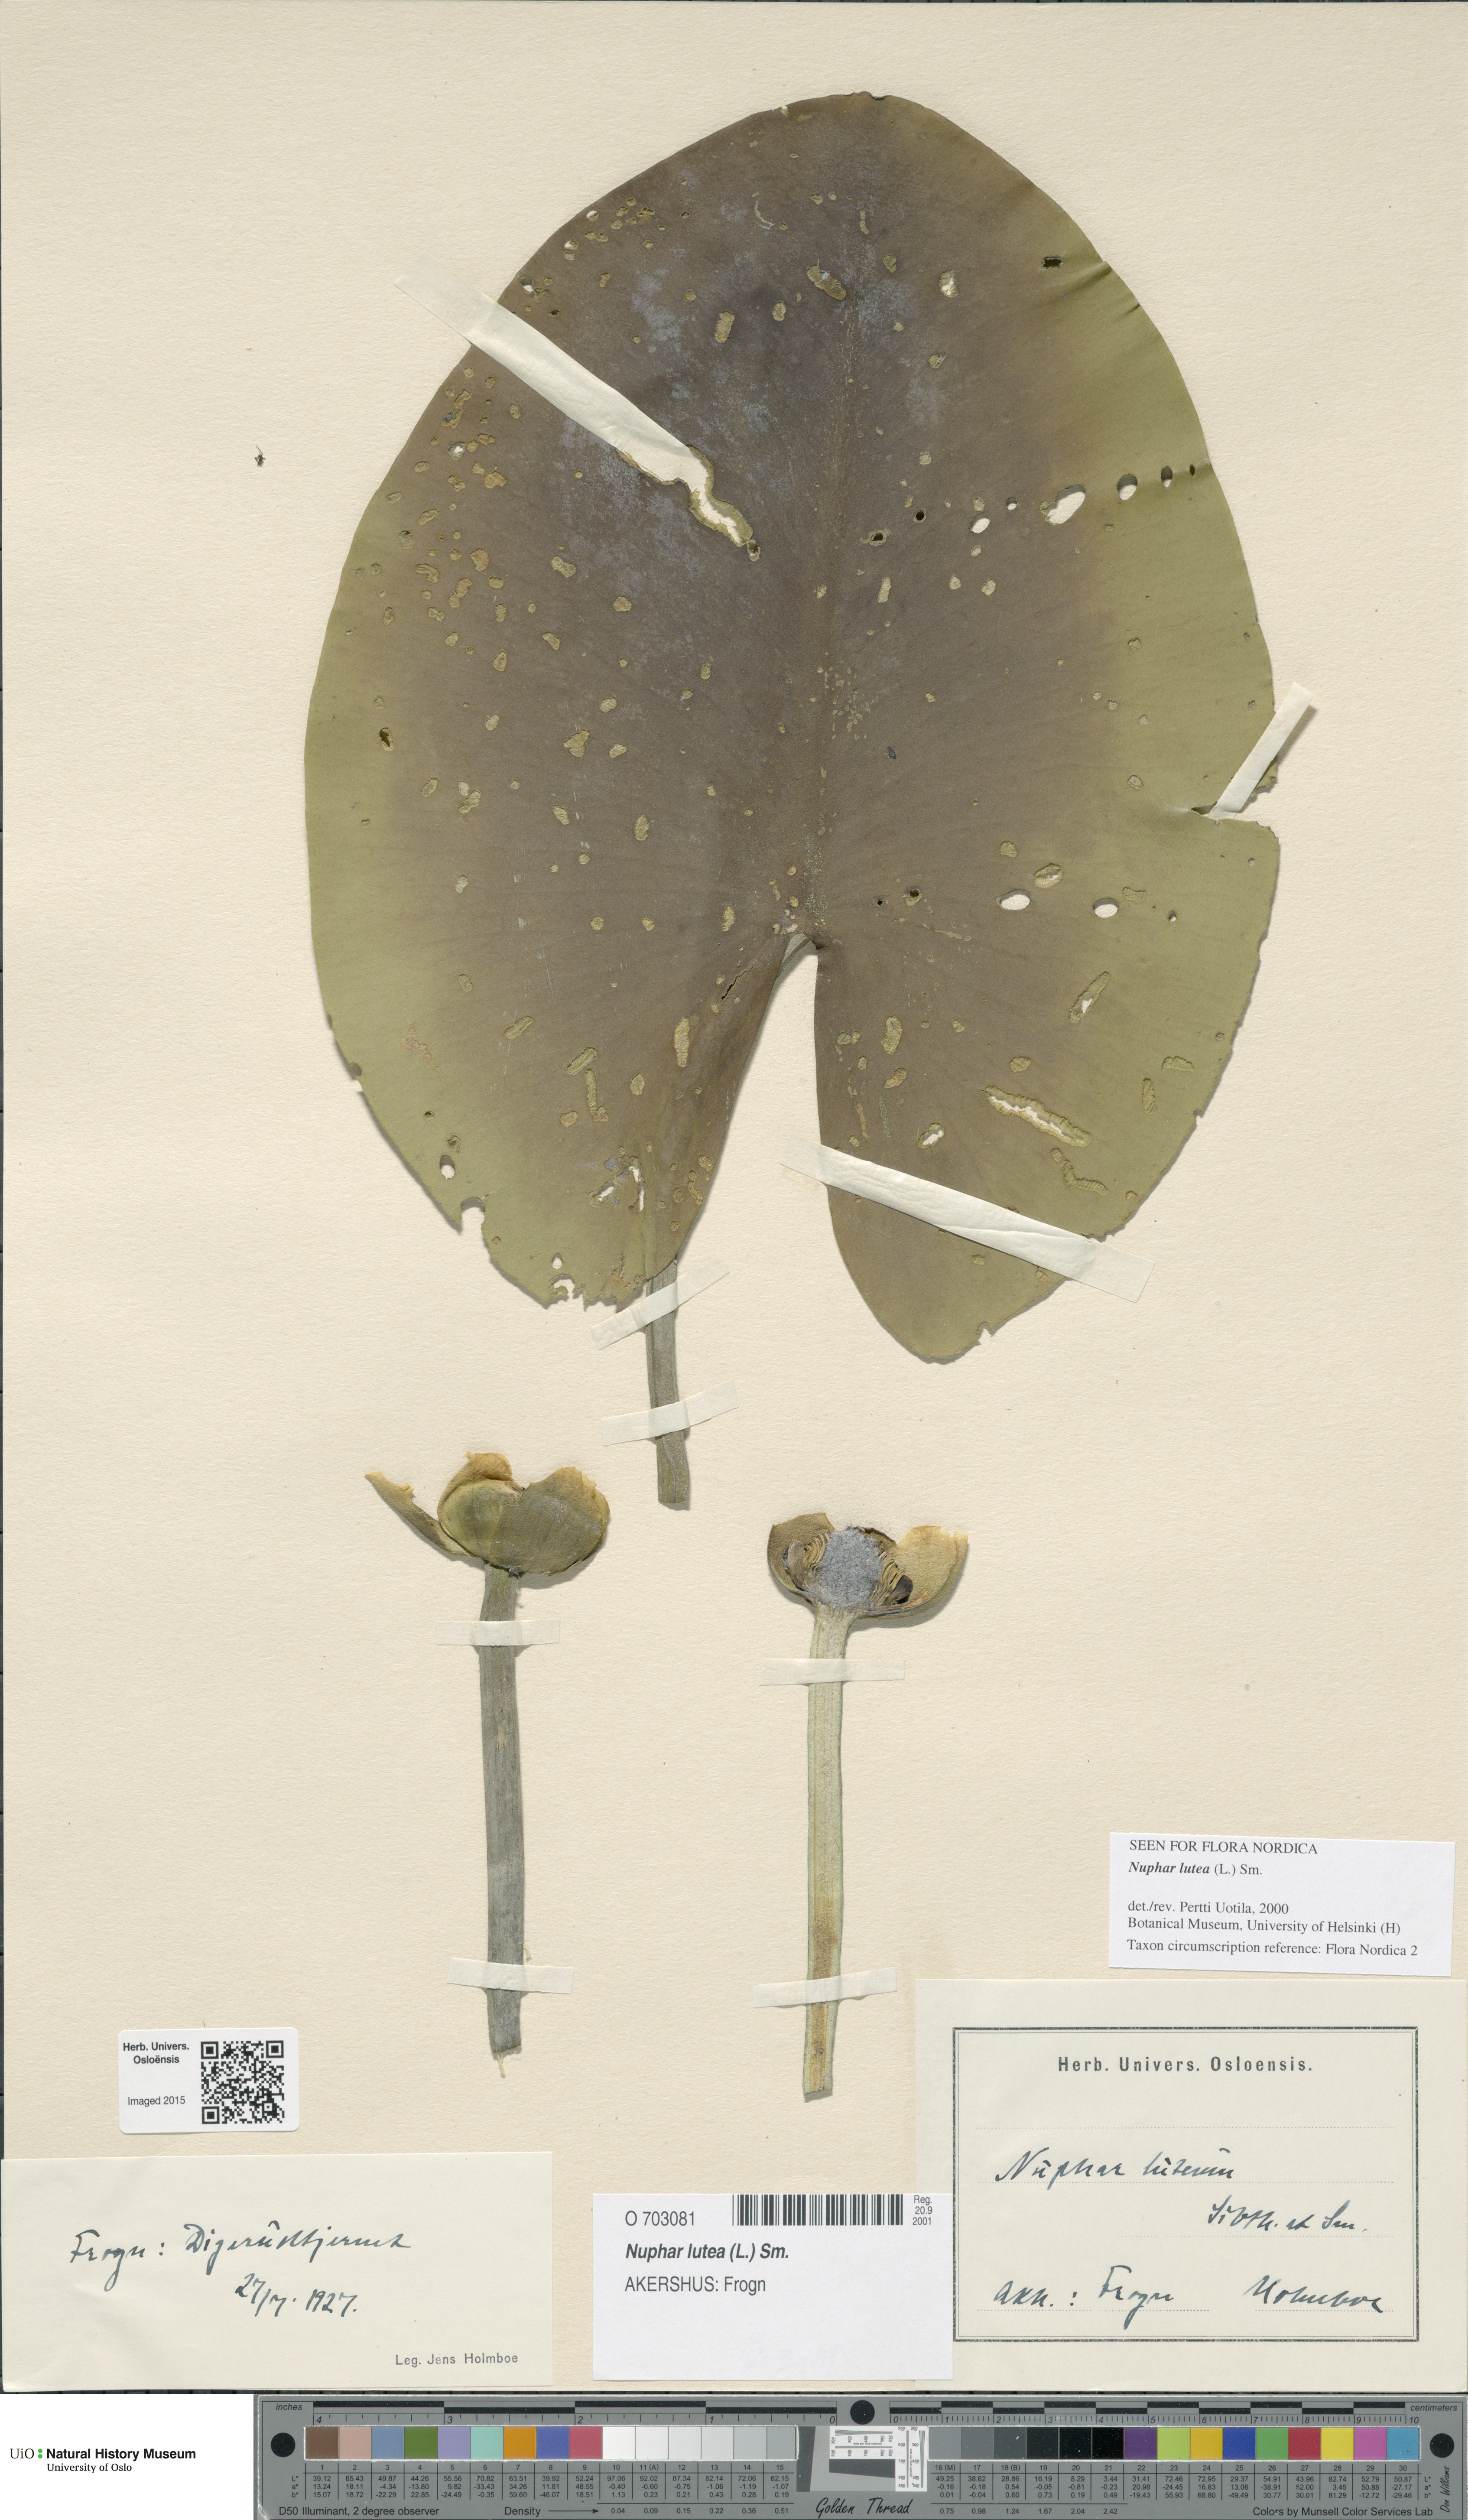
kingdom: Plantae
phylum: Tracheophyta
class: Magnoliopsida
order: Nymphaeales
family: Nymphaeaceae
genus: Nuphar
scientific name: Nuphar lutea
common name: Yellow water-lily
